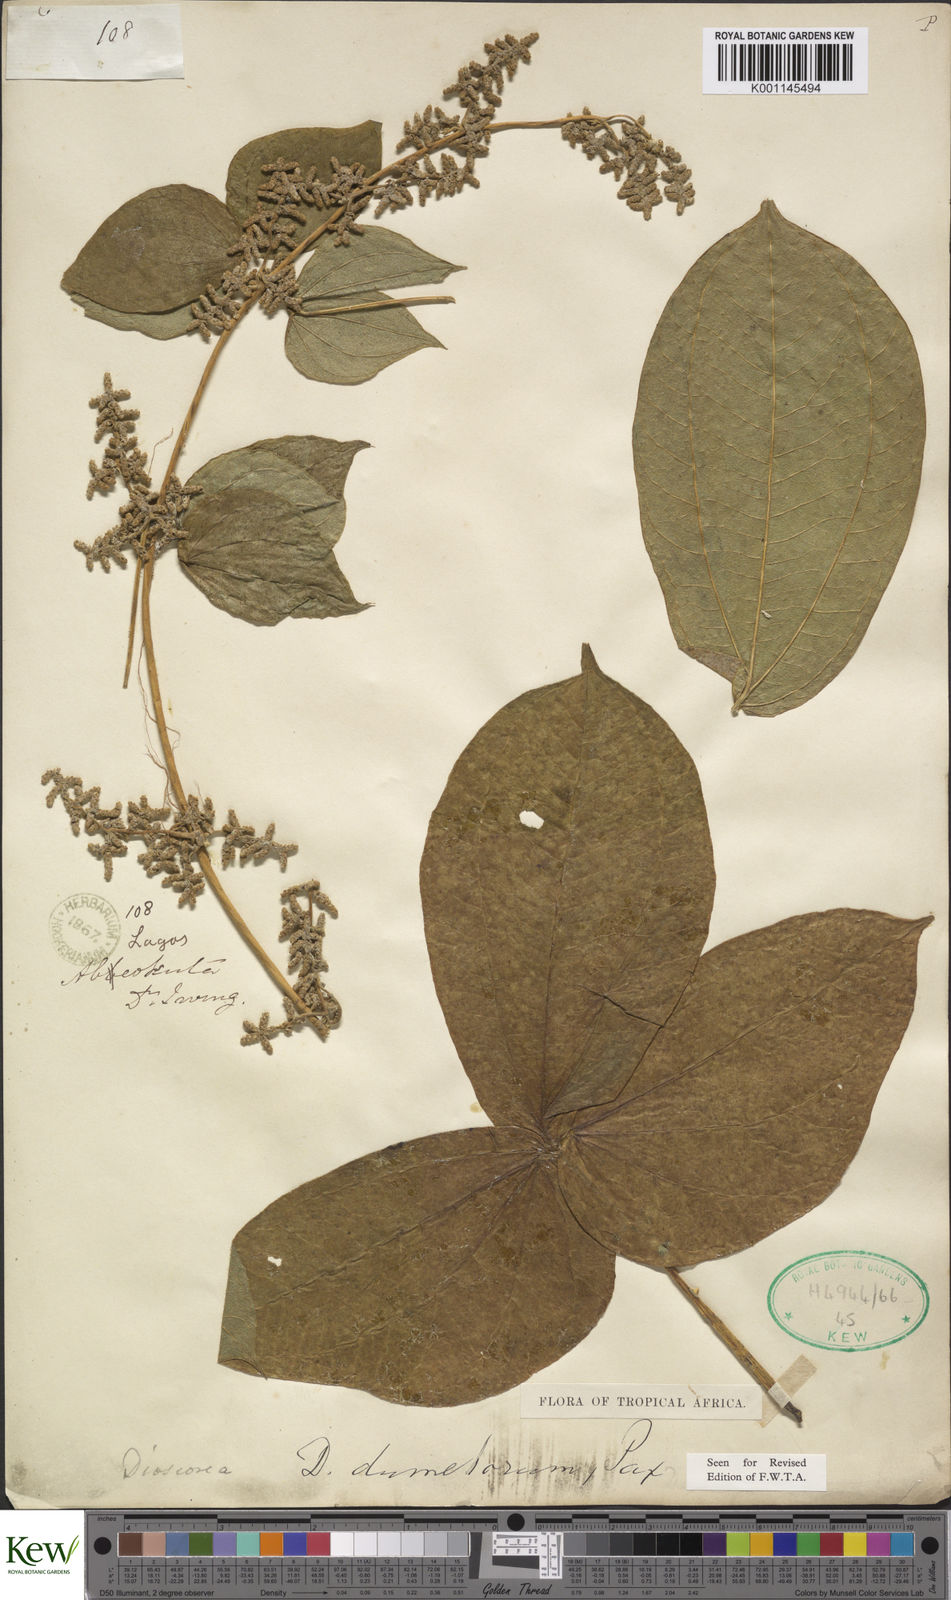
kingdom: Plantae
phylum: Tracheophyta
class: Liliopsida
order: Dioscoreales
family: Dioscoreaceae
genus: Dioscorea
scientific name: Dioscorea dumetorum
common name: African bitter yam
